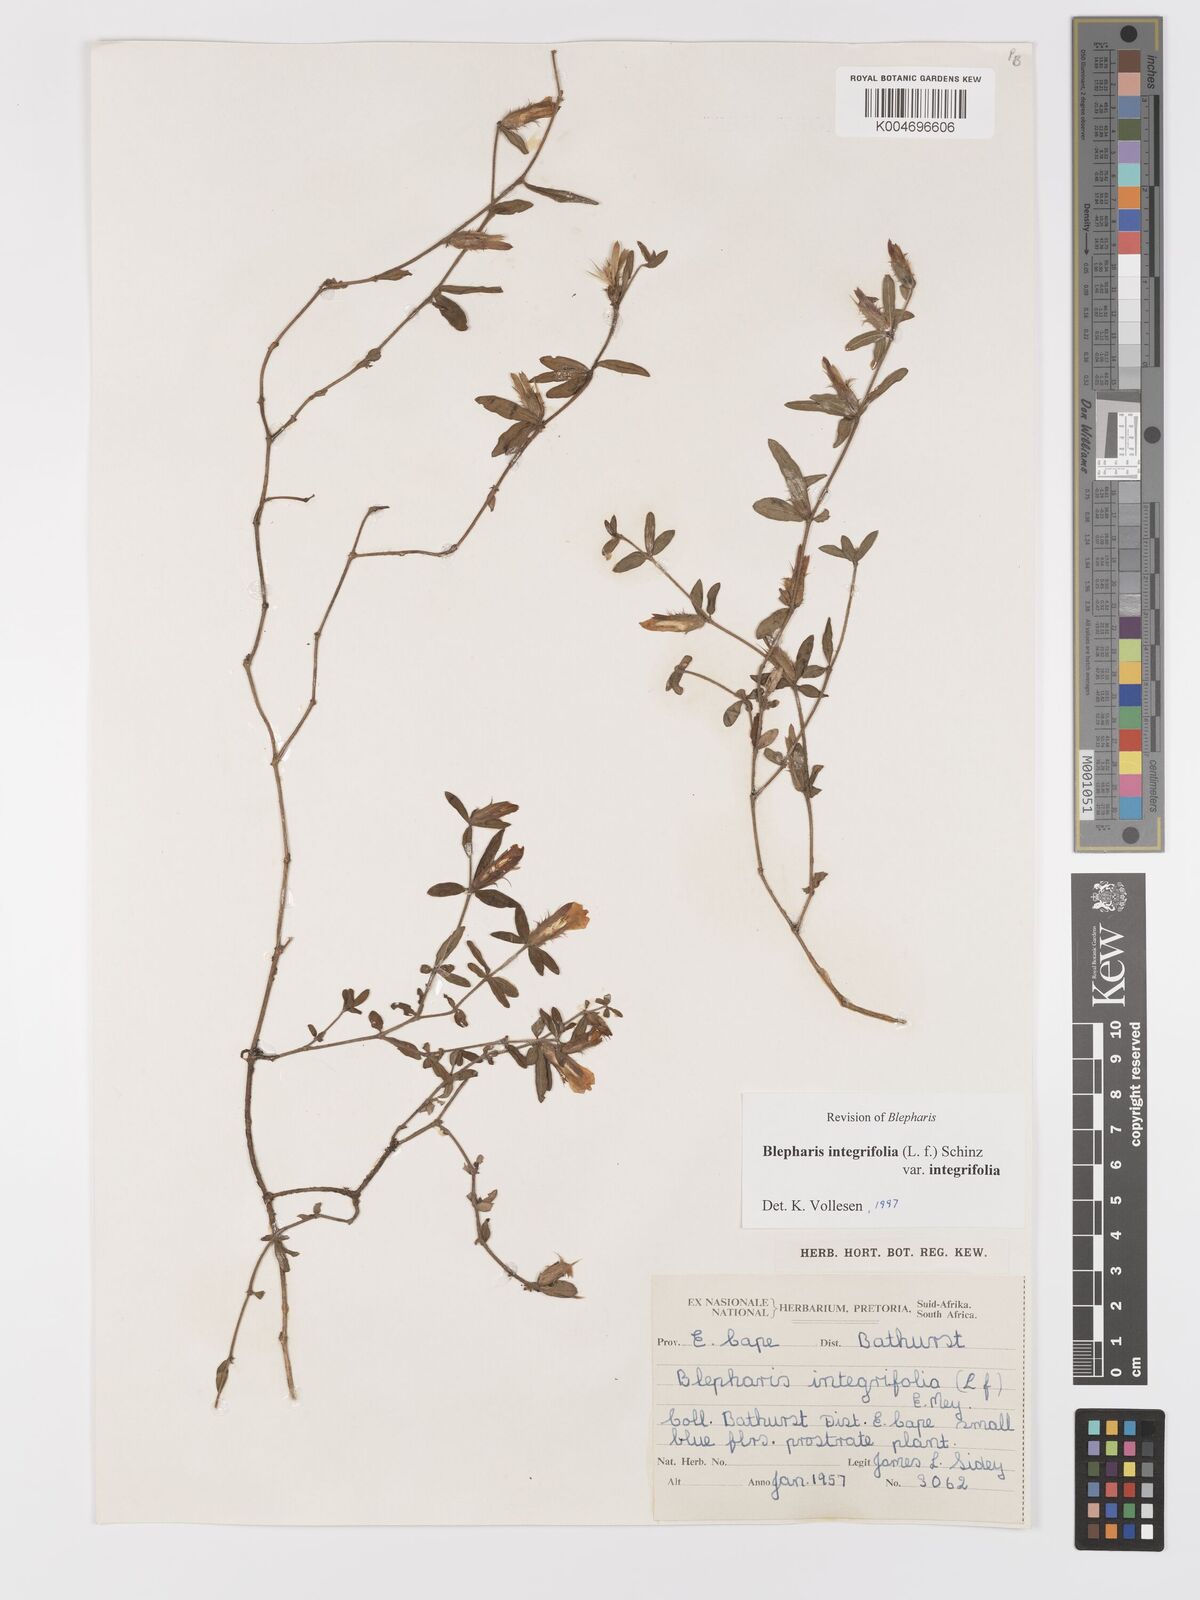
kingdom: Plantae
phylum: Tracheophyta
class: Magnoliopsida
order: Lamiales
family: Acanthaceae
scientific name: Acanthaceae
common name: Acanthaceae
